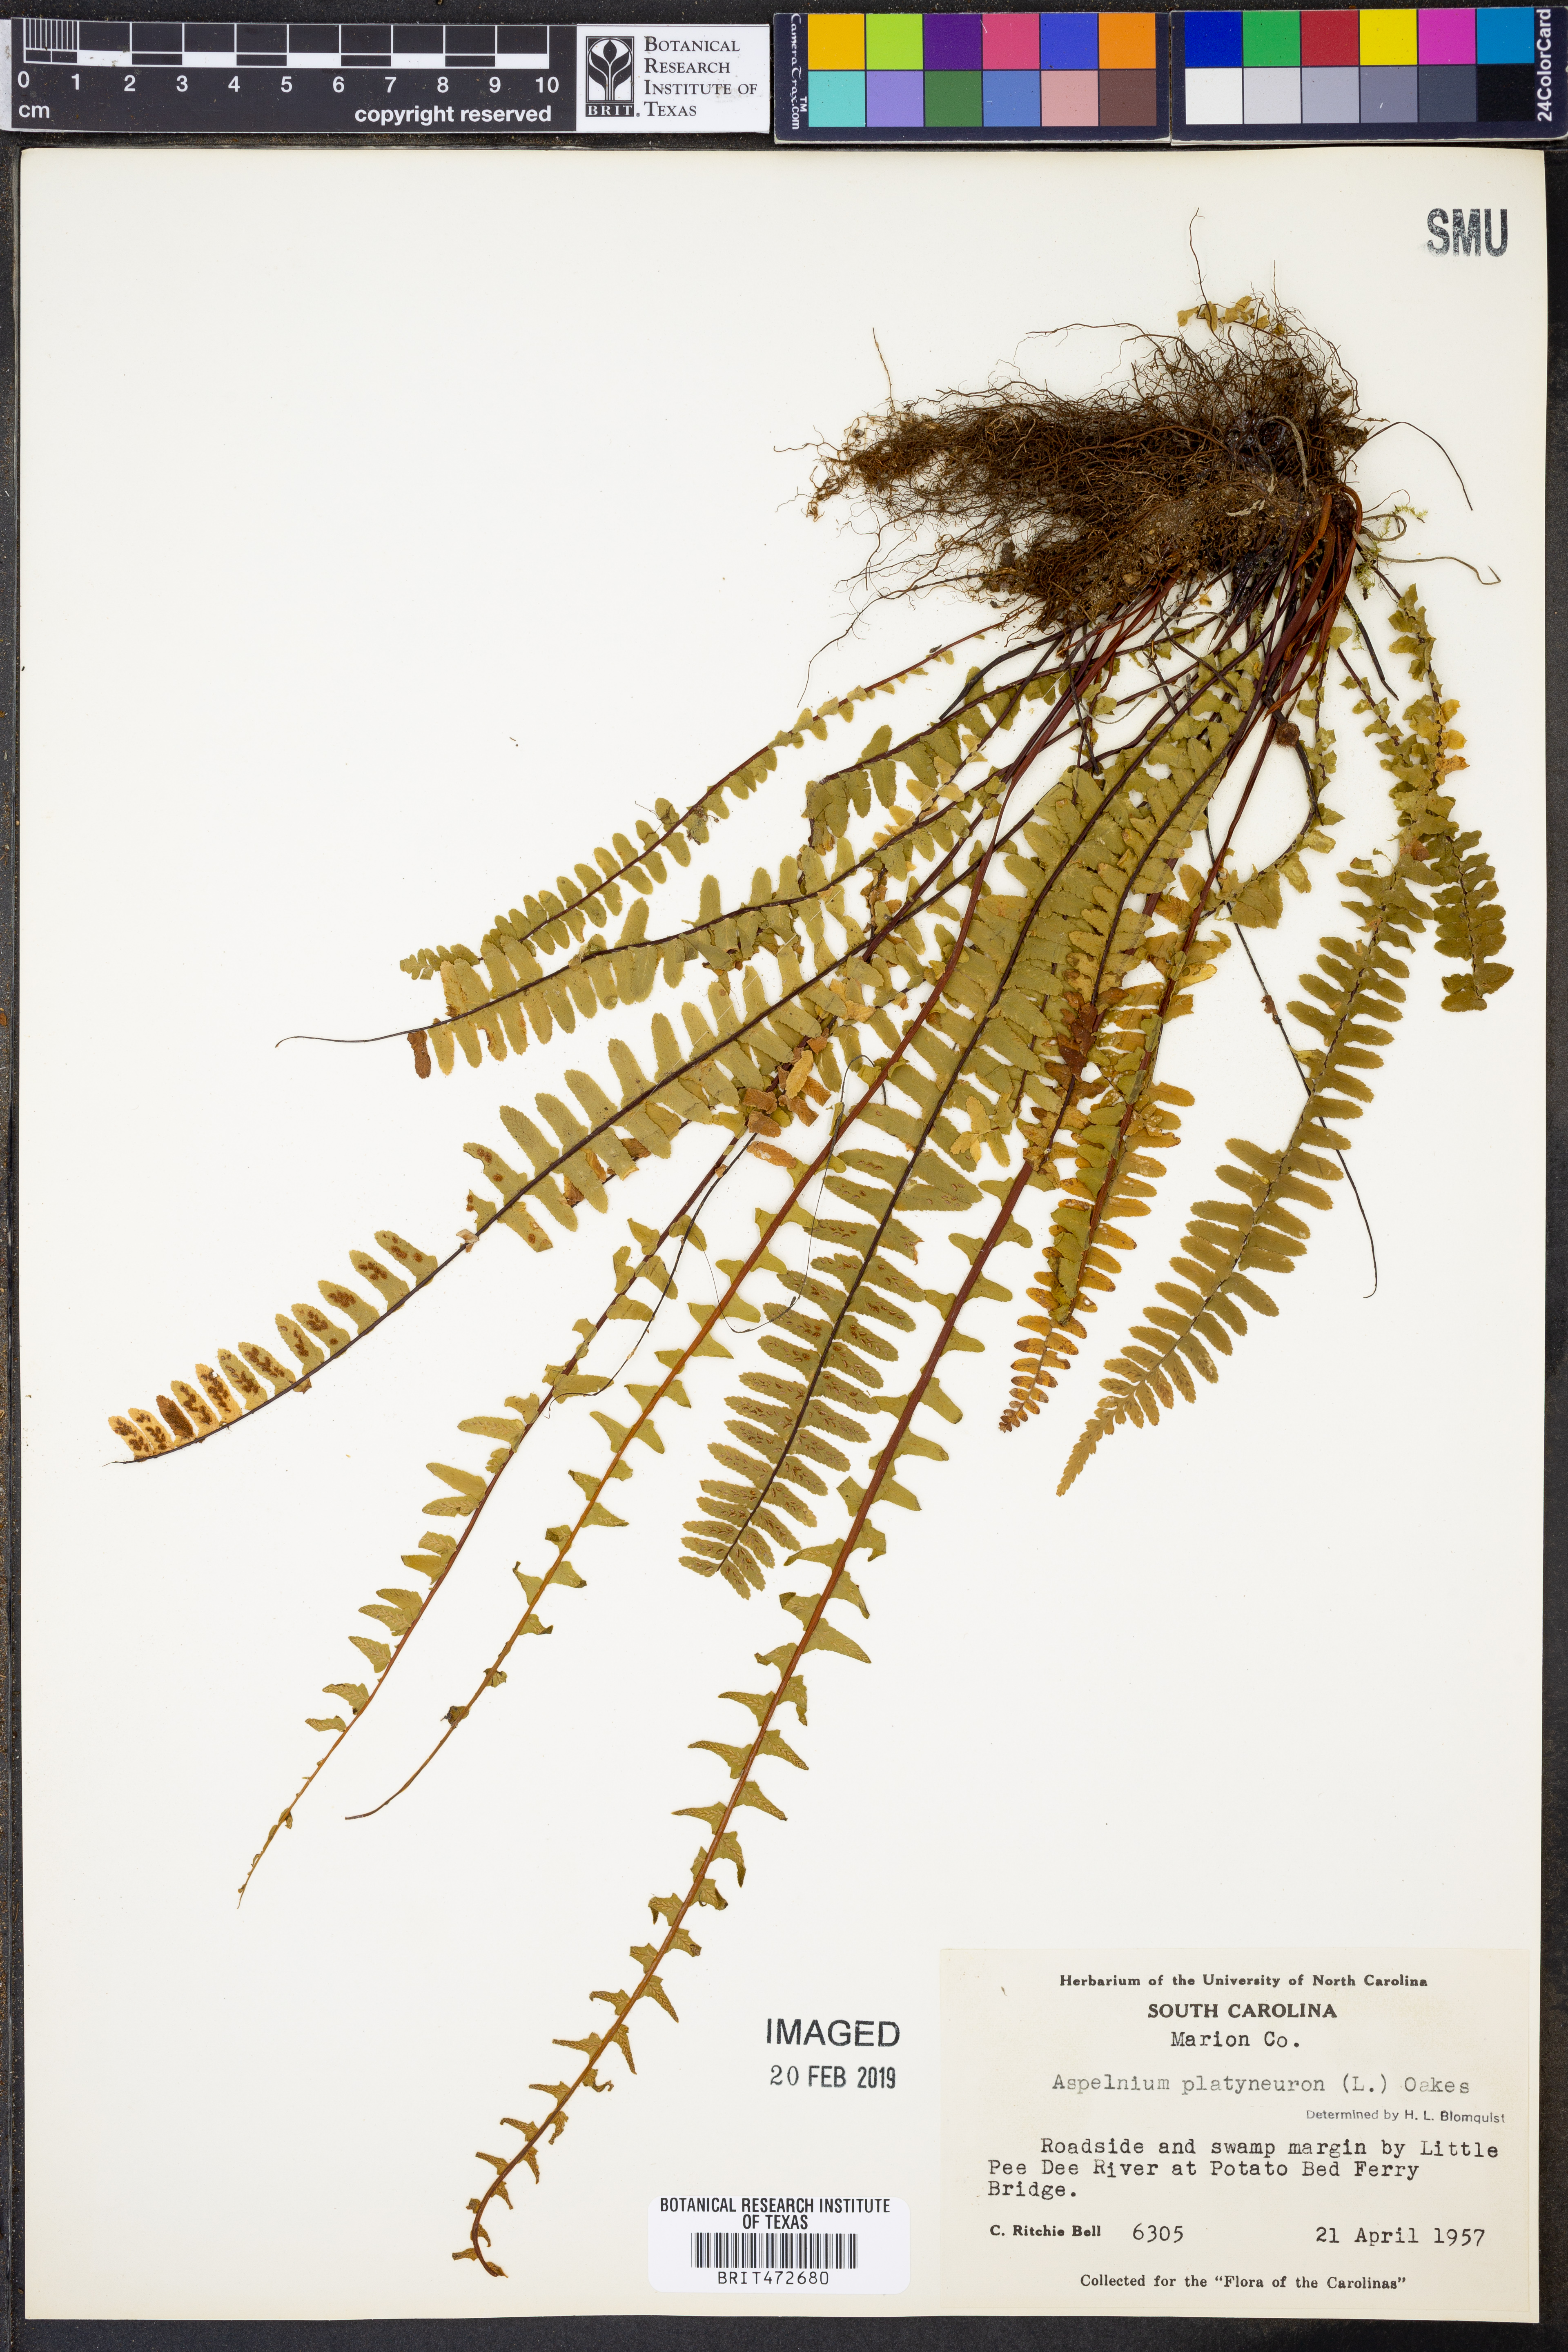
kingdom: Plantae
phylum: Tracheophyta
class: Polypodiopsida
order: Polypodiales
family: Aspleniaceae
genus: Asplenium
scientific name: Asplenium platyneuron
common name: Ebony spleenwort
